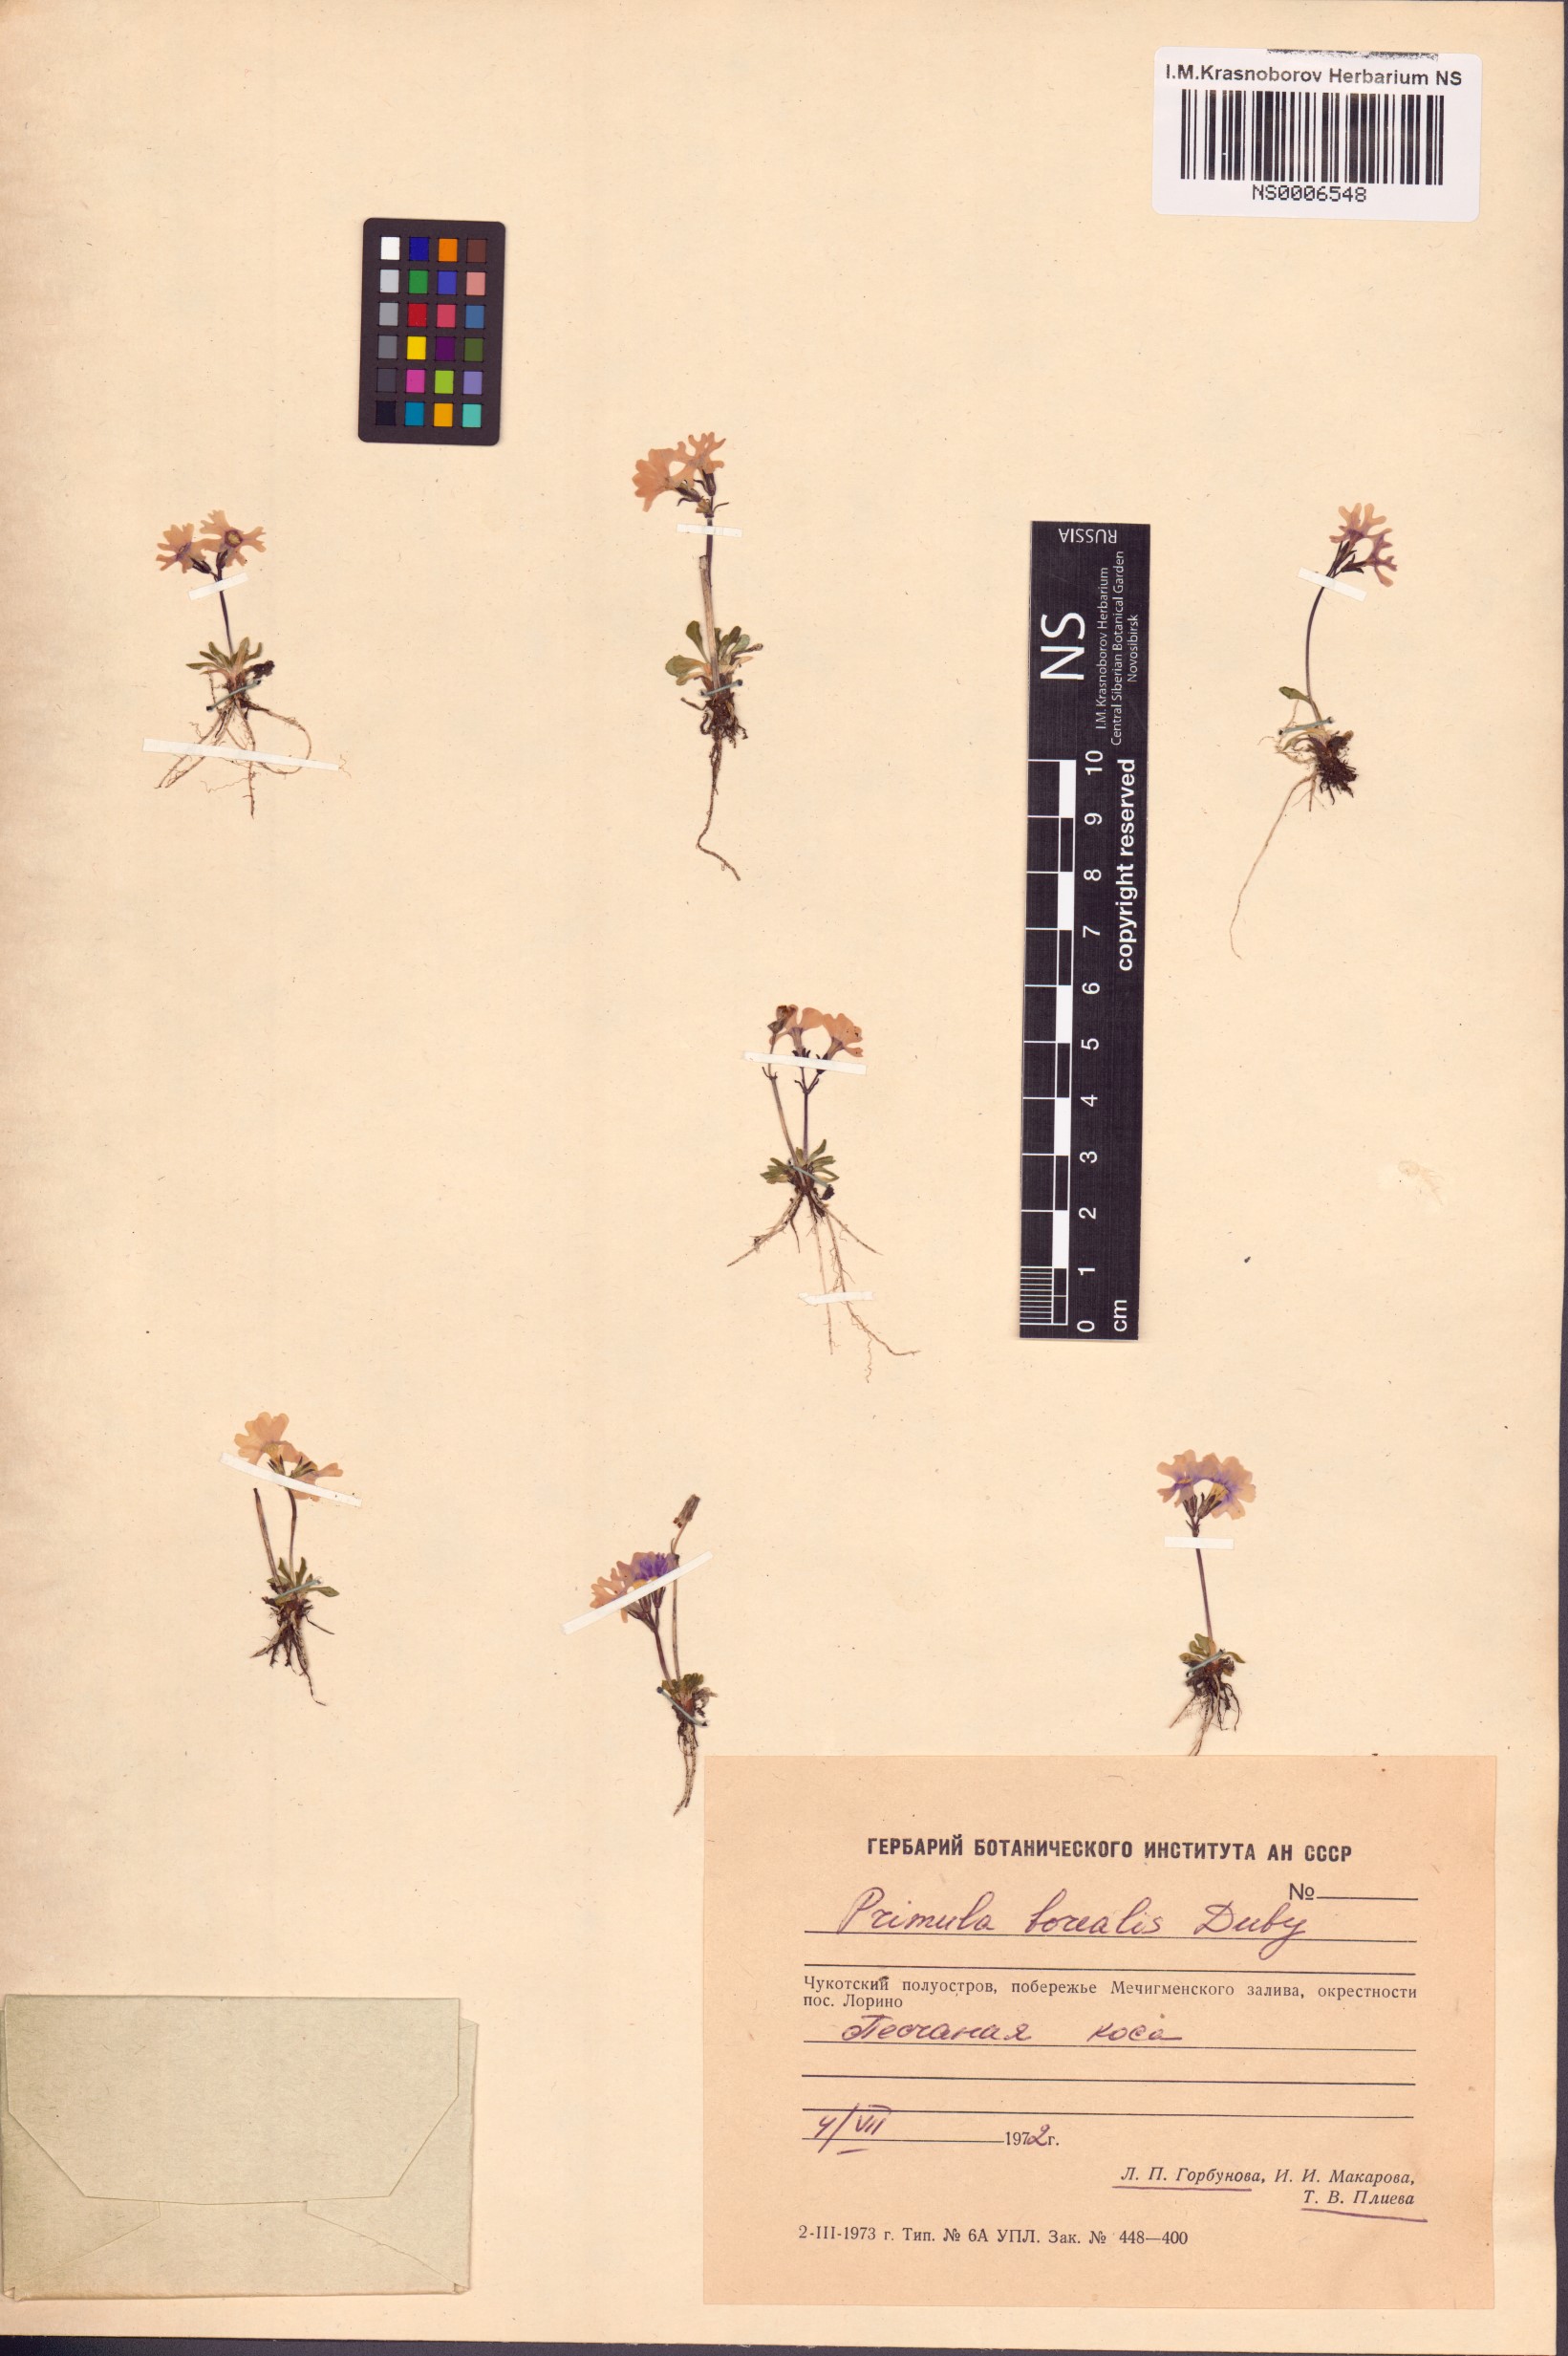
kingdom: Plantae
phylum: Tracheophyta
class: Magnoliopsida
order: Ericales
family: Primulaceae
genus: Primula
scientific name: Primula borealis
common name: Northern primrose
